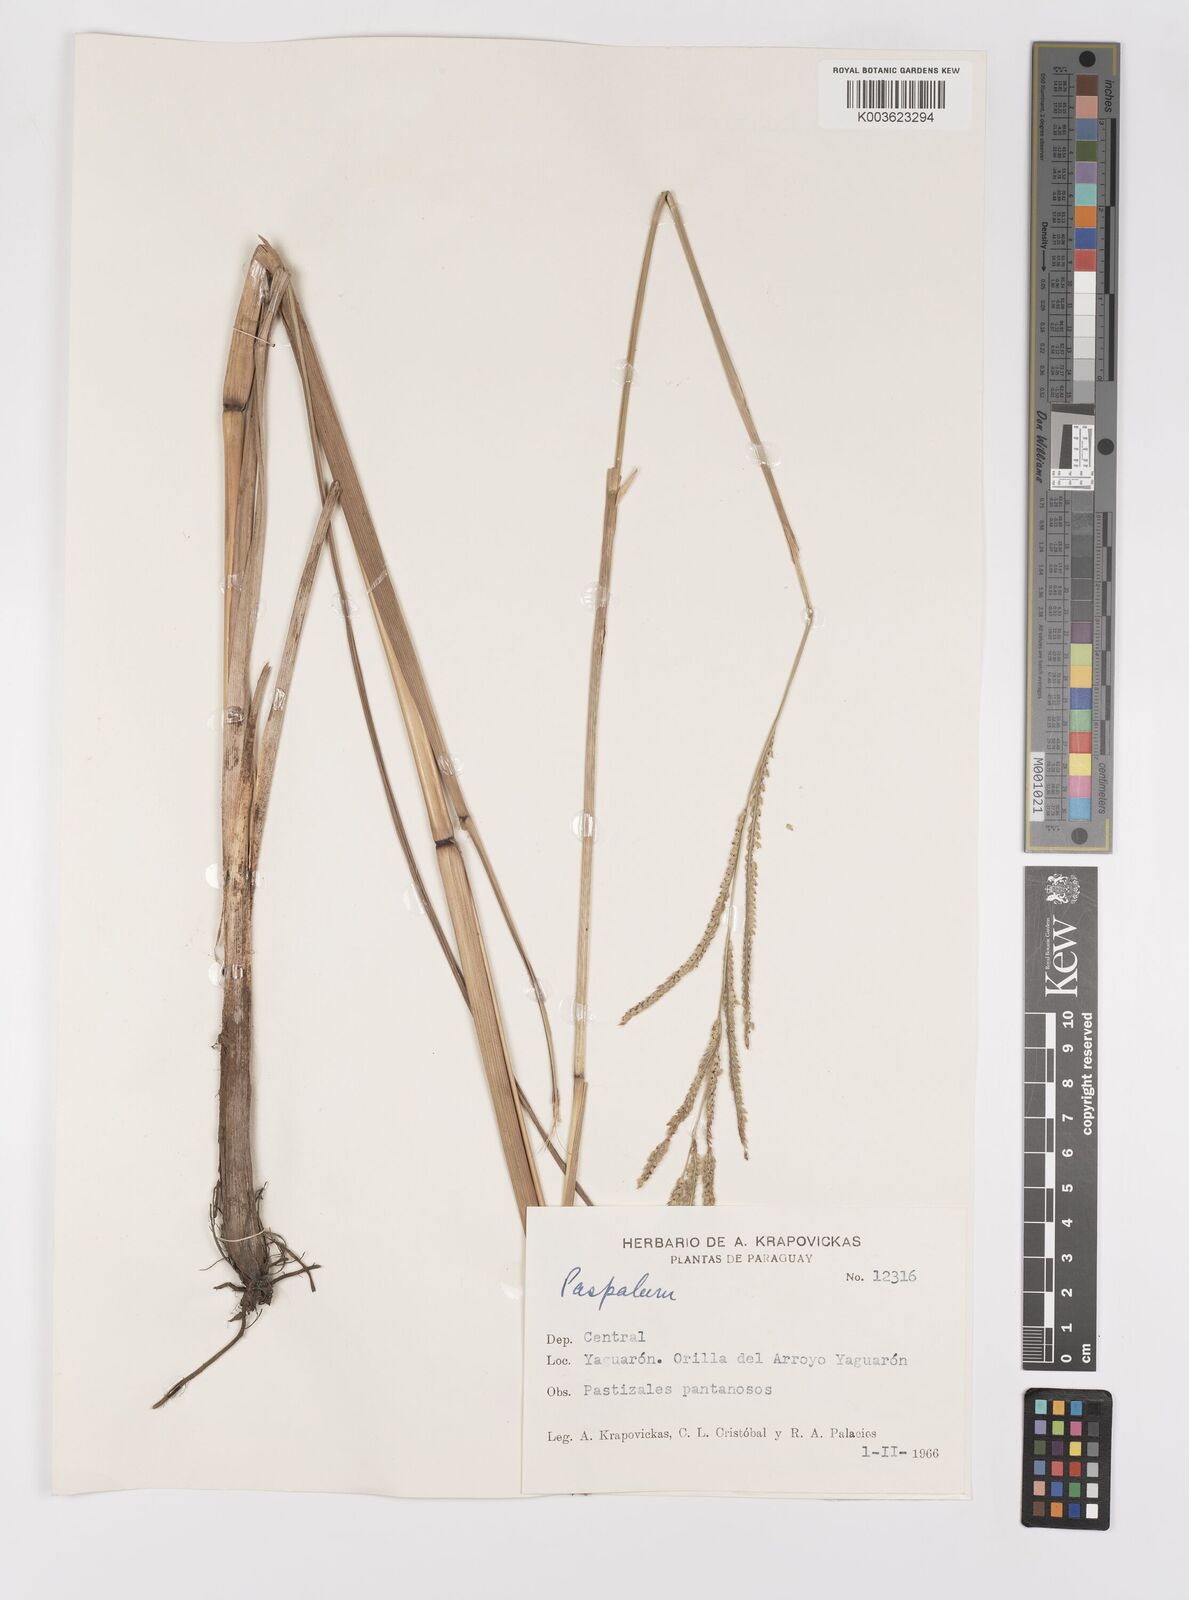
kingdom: Plantae
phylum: Tracheophyta
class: Liliopsida
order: Poales
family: Poaceae
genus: Paspalum
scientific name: Paspalum urvillei
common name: Vasey's grass
